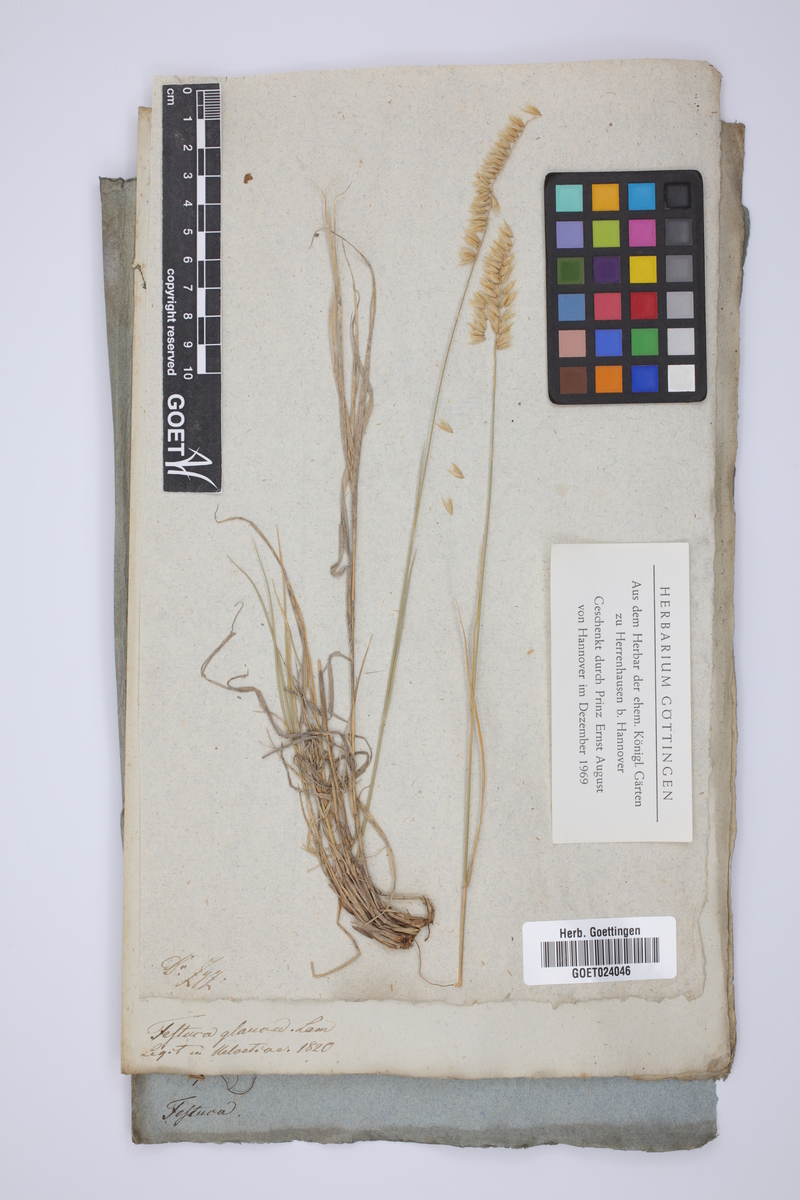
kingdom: Plantae
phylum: Tracheophyta
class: Liliopsida
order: Poales
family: Poaceae
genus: Festuca
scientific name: Festuca
